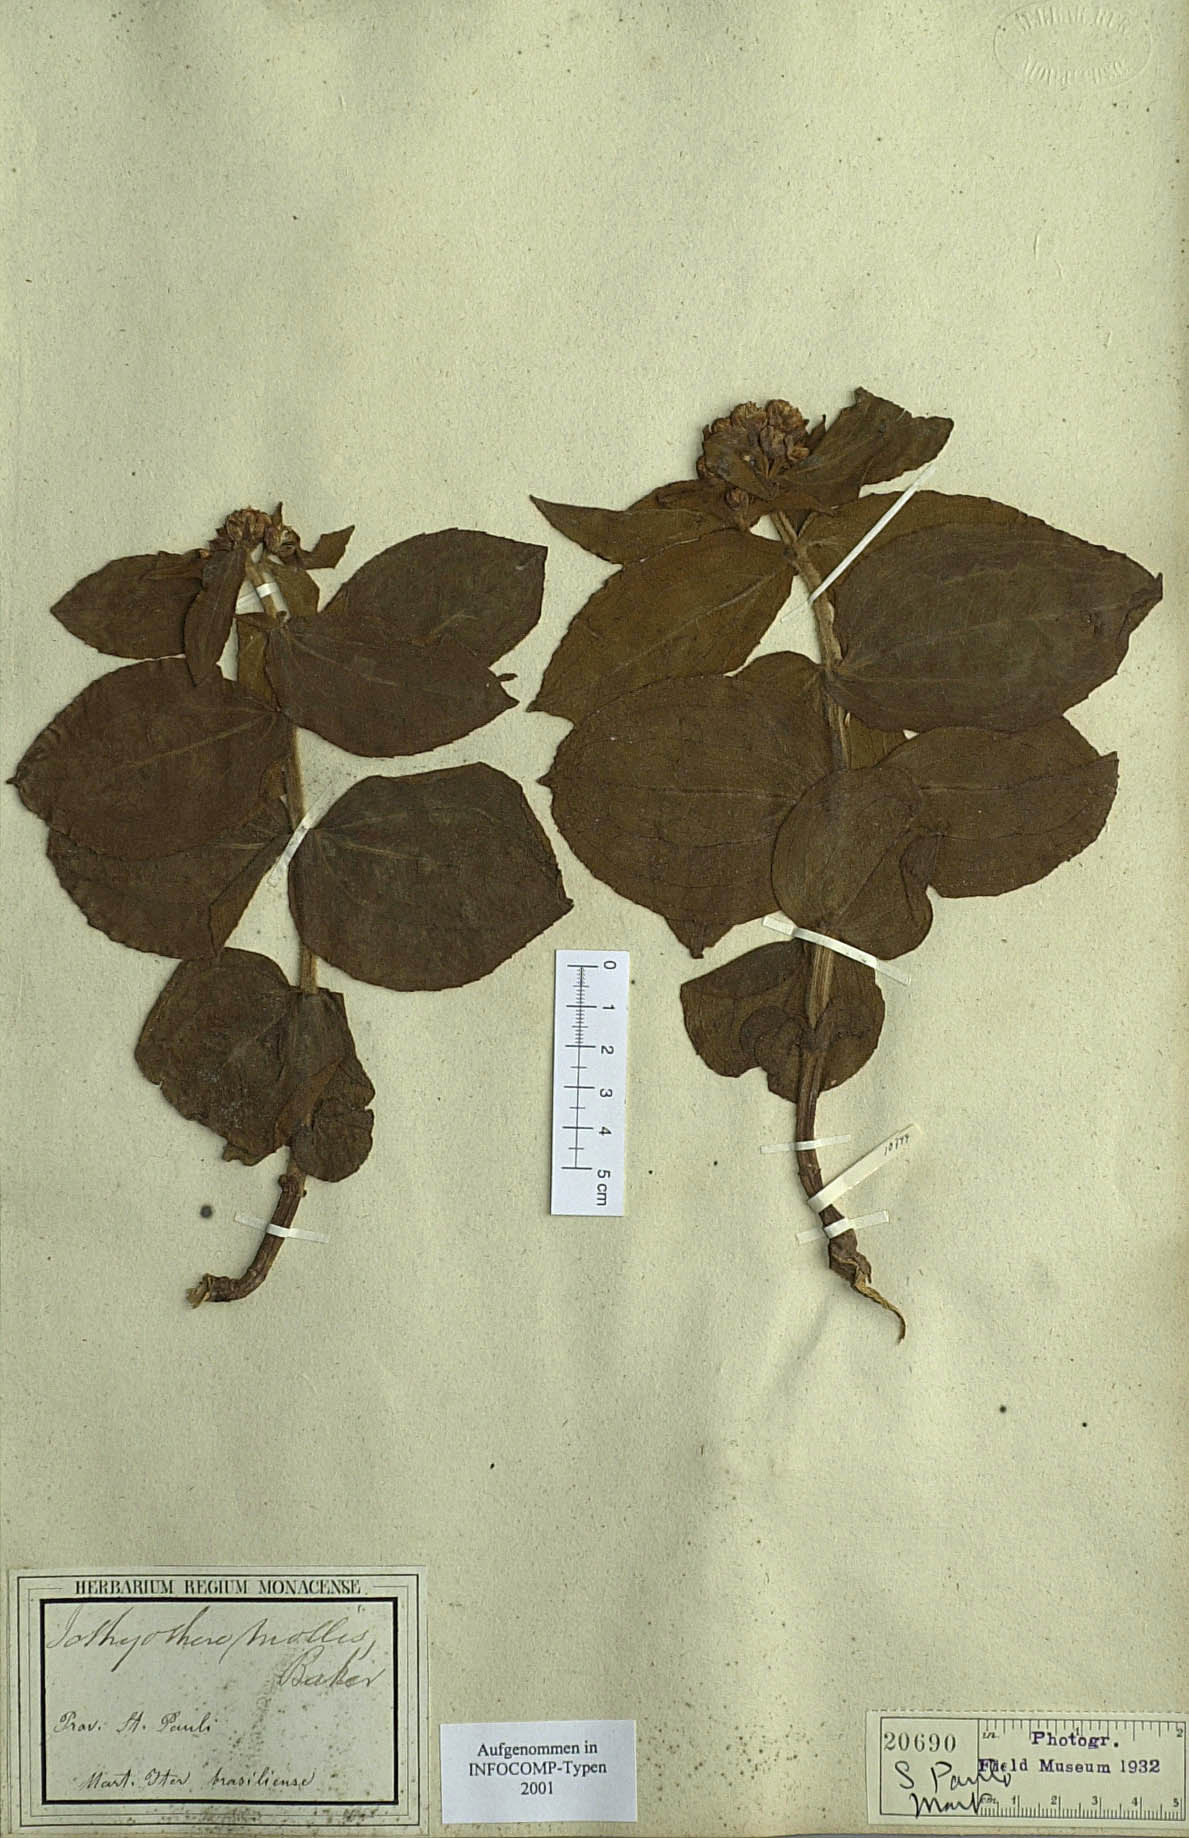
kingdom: Plantae
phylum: Tracheophyta
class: Magnoliopsida
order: Asterales
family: Asteraceae
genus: Ichthyothere
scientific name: Ichthyothere mollis
